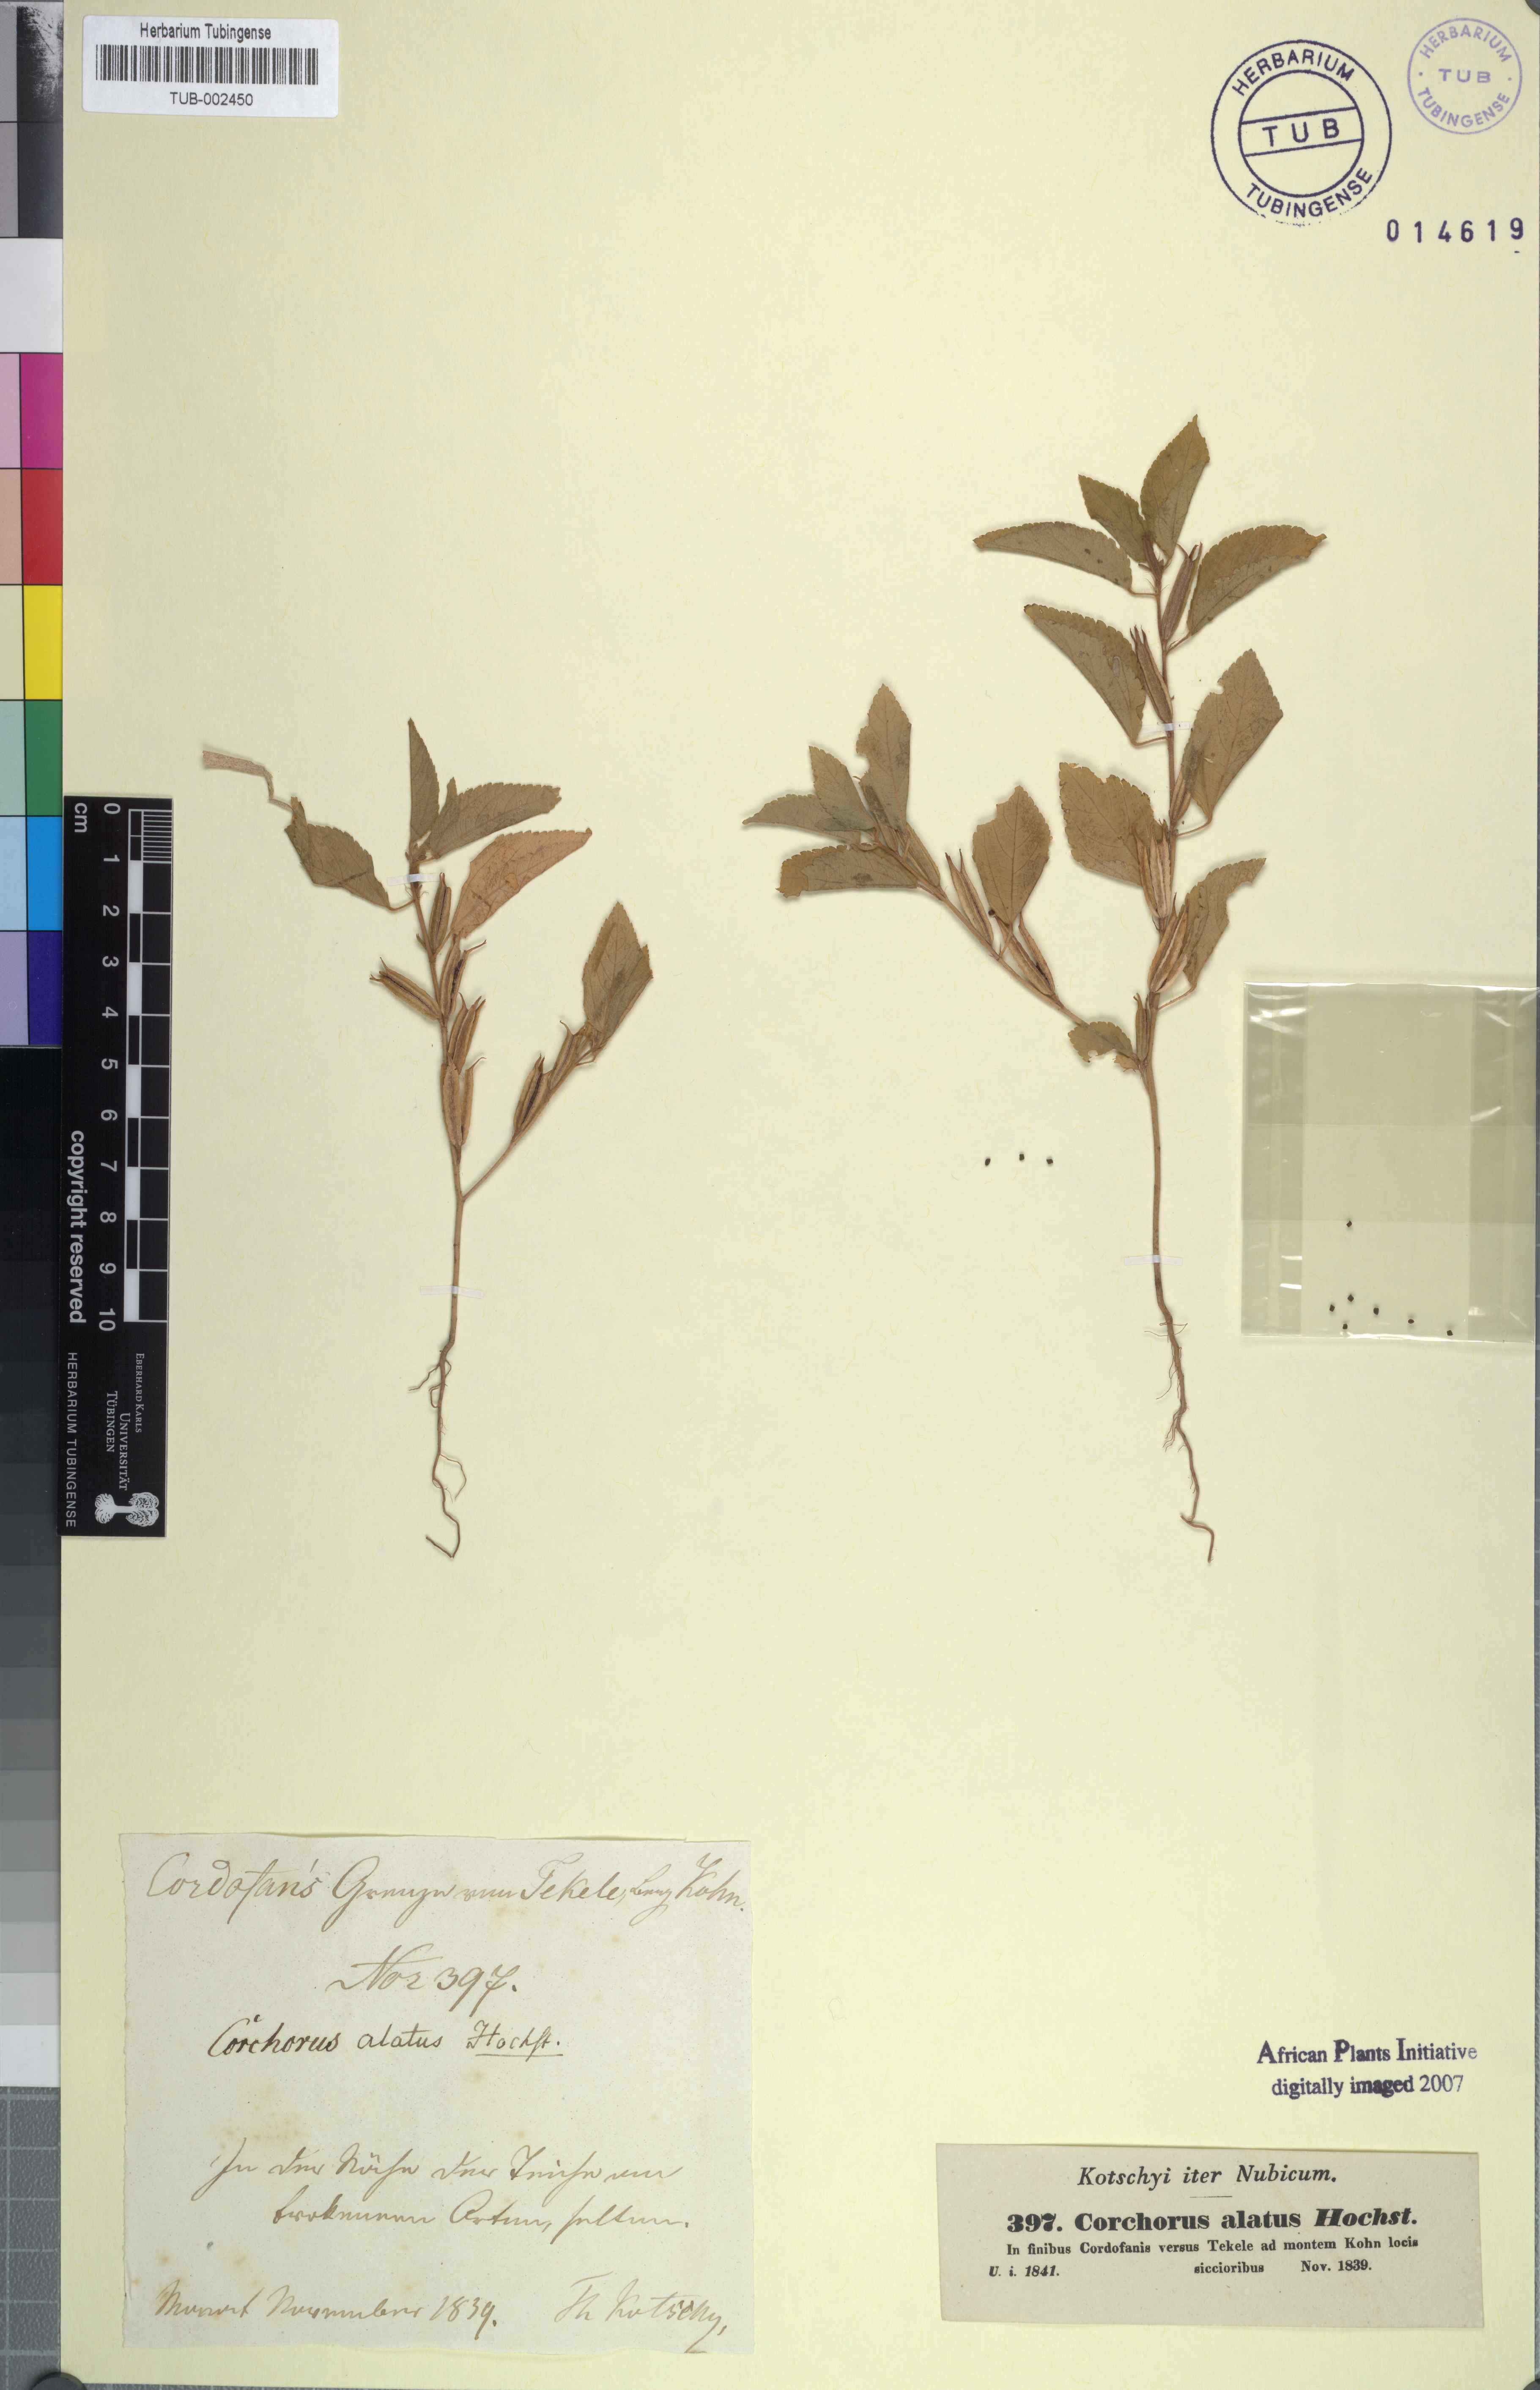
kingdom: Plantae
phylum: Tracheophyta
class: Magnoliopsida
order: Malvales
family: Malvaceae
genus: Corchorus
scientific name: Corchorus alatus
